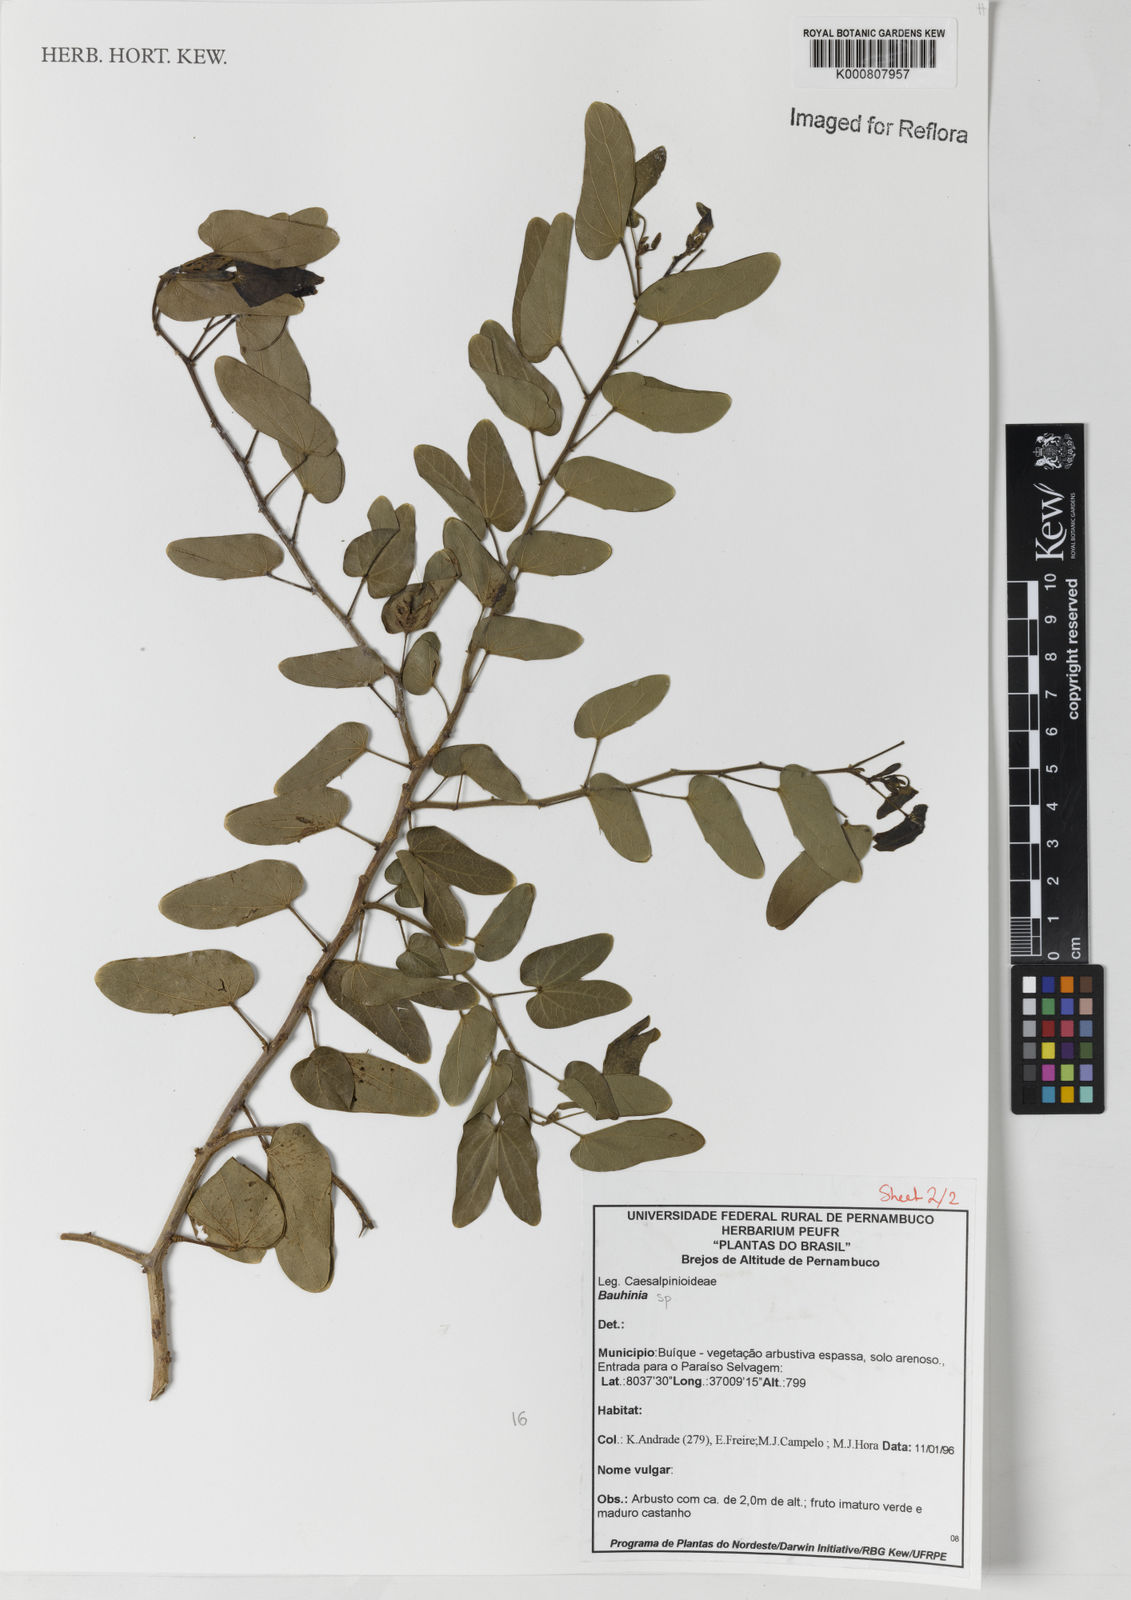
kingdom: Plantae
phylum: Tracheophyta
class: Magnoliopsida
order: Fabales
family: Fabaceae
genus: Bauhinia
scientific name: Bauhinia
